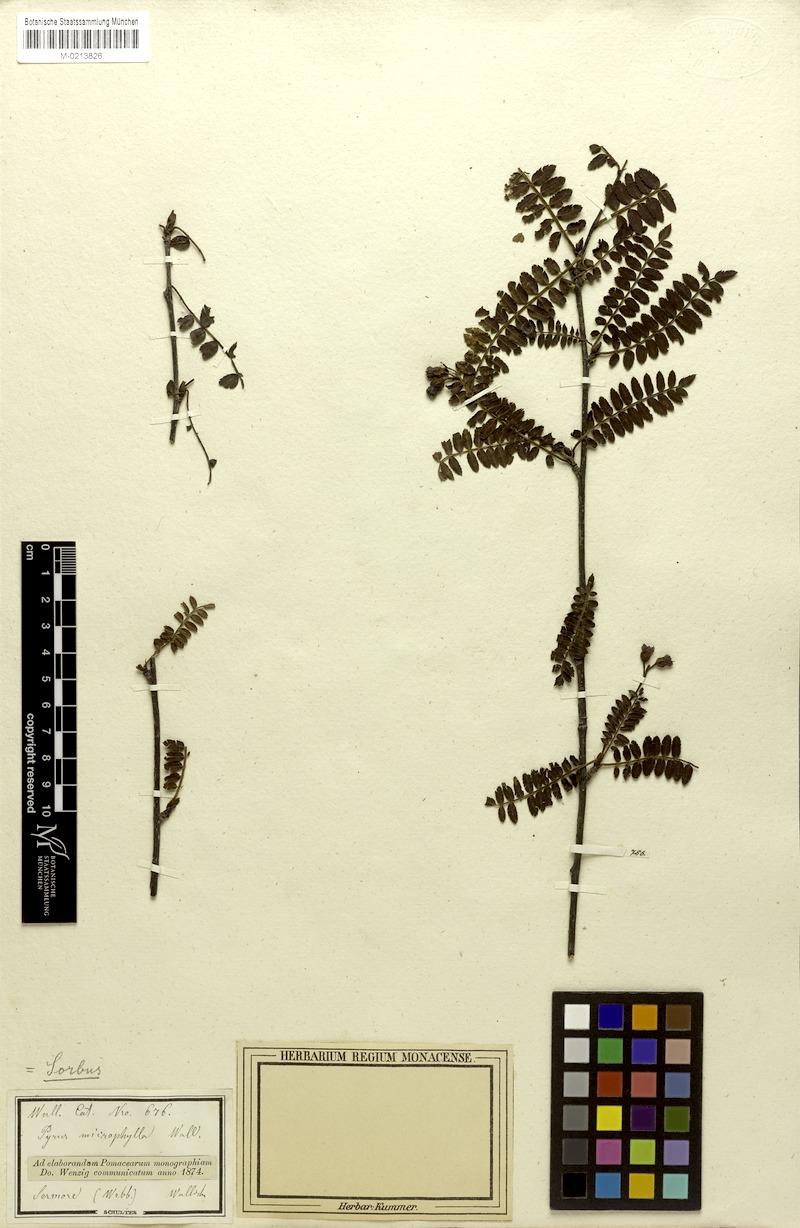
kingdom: Plantae
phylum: Tracheophyta
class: Magnoliopsida
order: Rosales
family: Rosaceae
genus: Sorbus
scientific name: Sorbus microphylla
